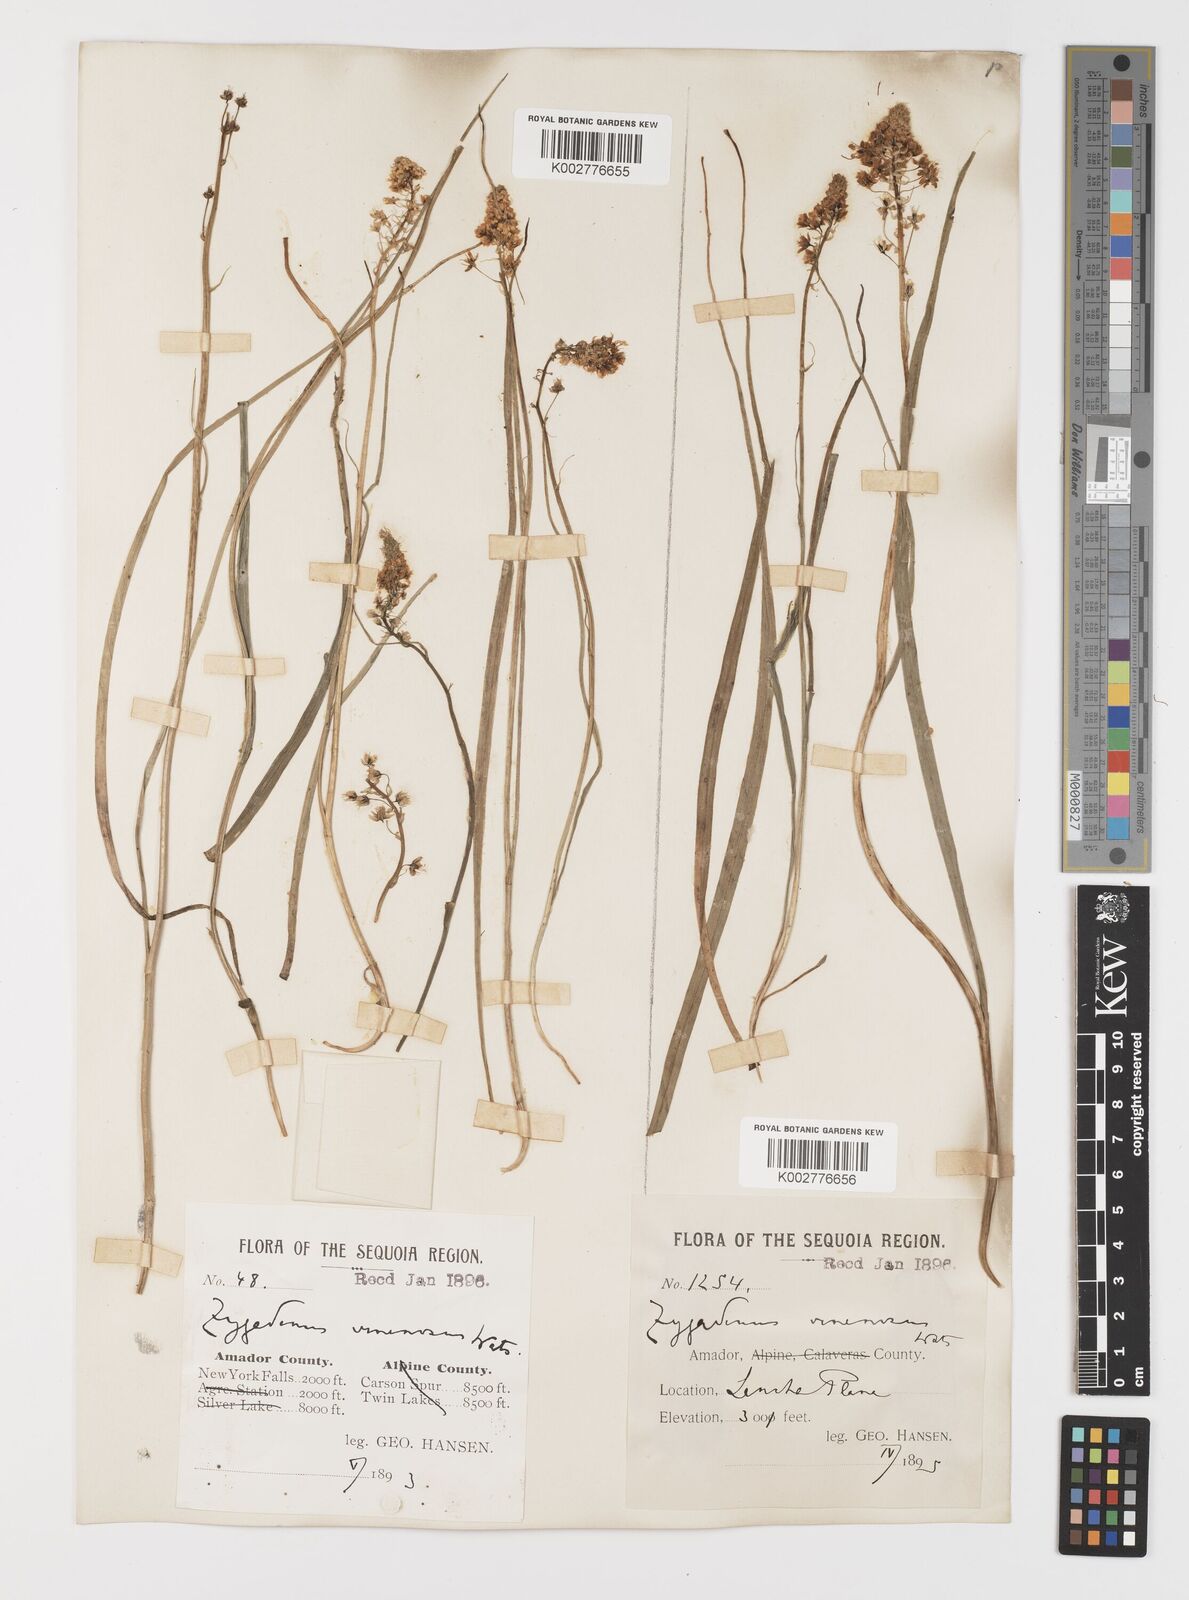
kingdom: Plantae
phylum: Tracheophyta
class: Liliopsida
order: Liliales
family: Melanthiaceae
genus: Toxicoscordion
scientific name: Toxicoscordion venenosum
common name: Meadow death camas
